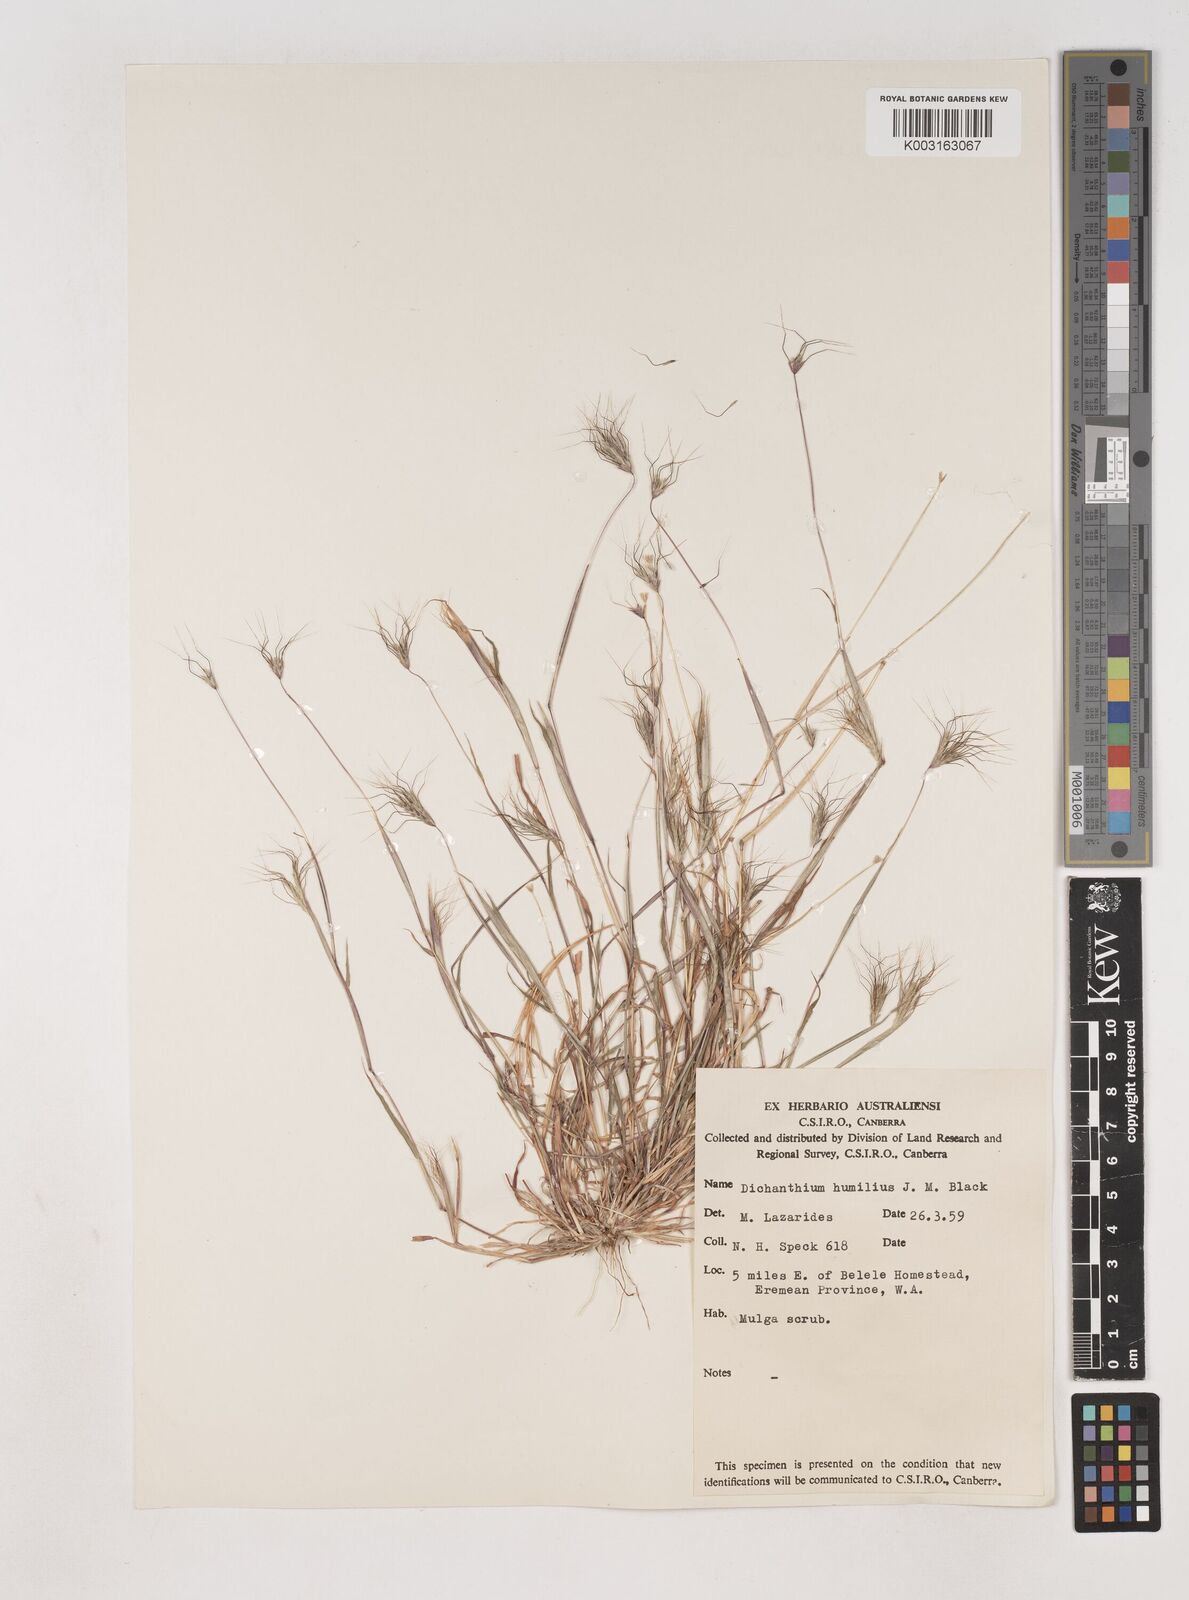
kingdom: Plantae
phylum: Tracheophyta
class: Liliopsida
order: Poales
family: Poaceae
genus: Dichanthium
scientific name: Dichanthium sericeum
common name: Silky bluestem
